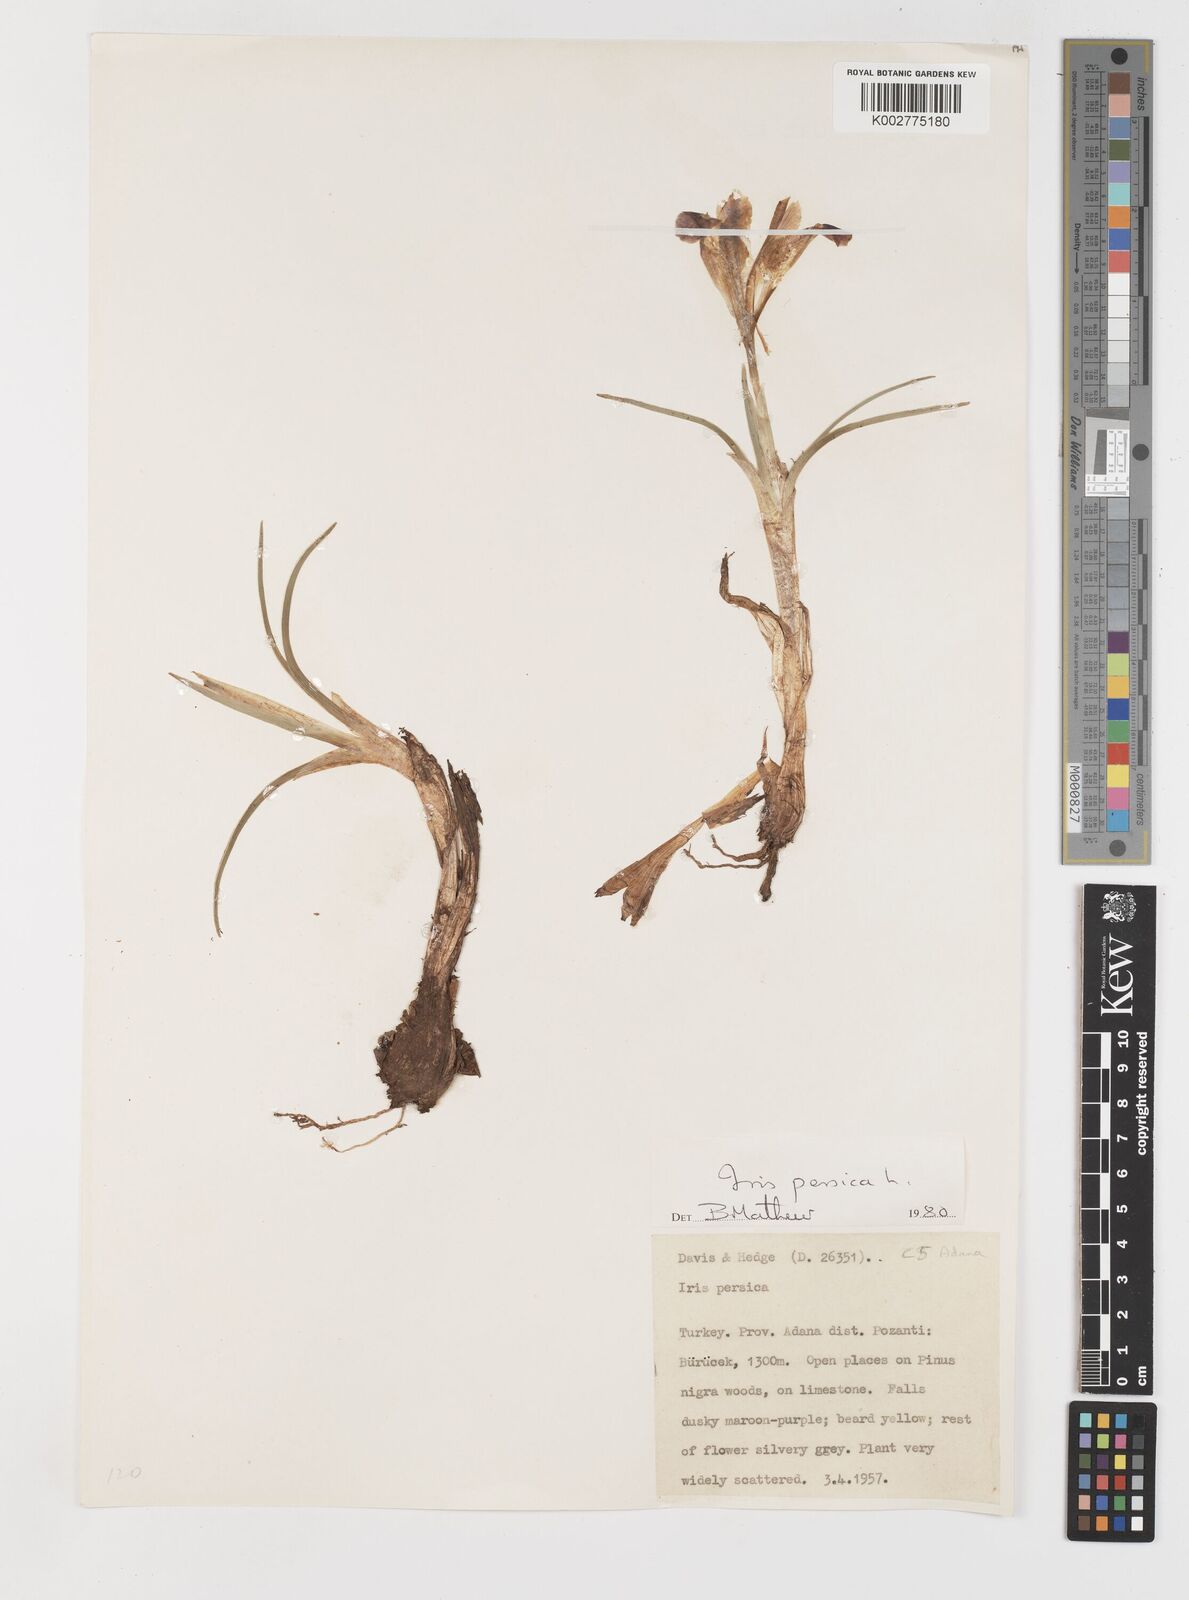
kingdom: Plantae
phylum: Tracheophyta
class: Liliopsida
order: Asparagales
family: Iridaceae
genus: Iris
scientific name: Iris persica
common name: Persian iris
